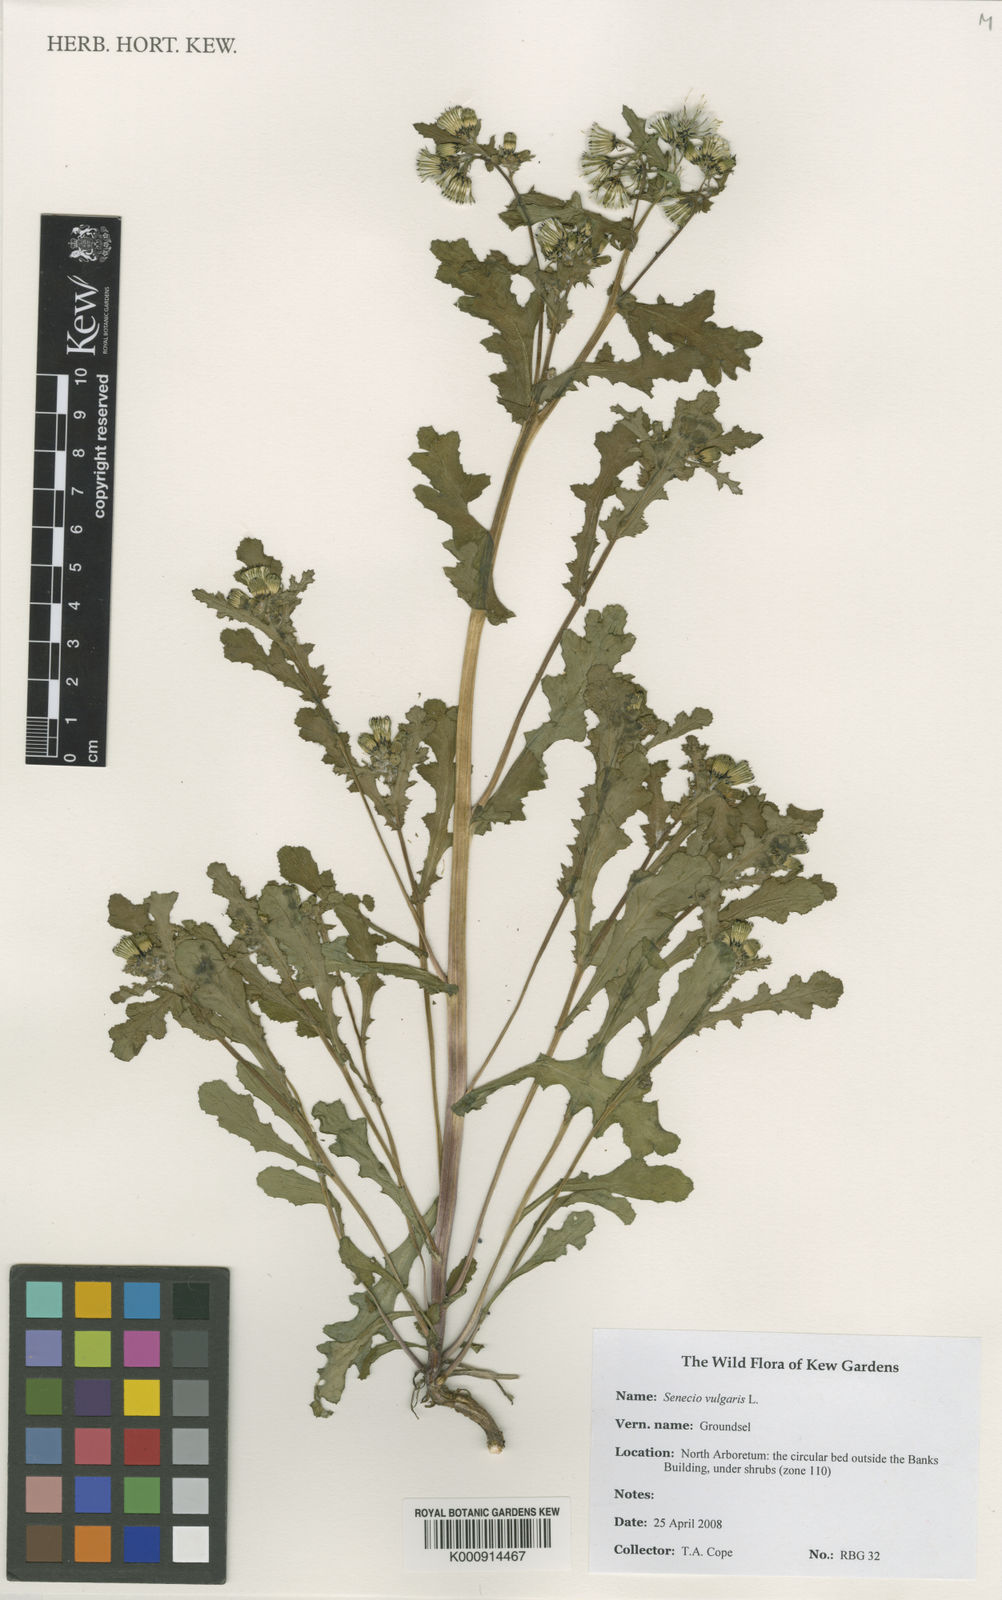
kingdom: Plantae
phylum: Tracheophyta
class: Magnoliopsida
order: Asterales
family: Asteraceae
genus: Senecio
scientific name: Senecio vulgaris
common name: Old-man-in-the-spring
